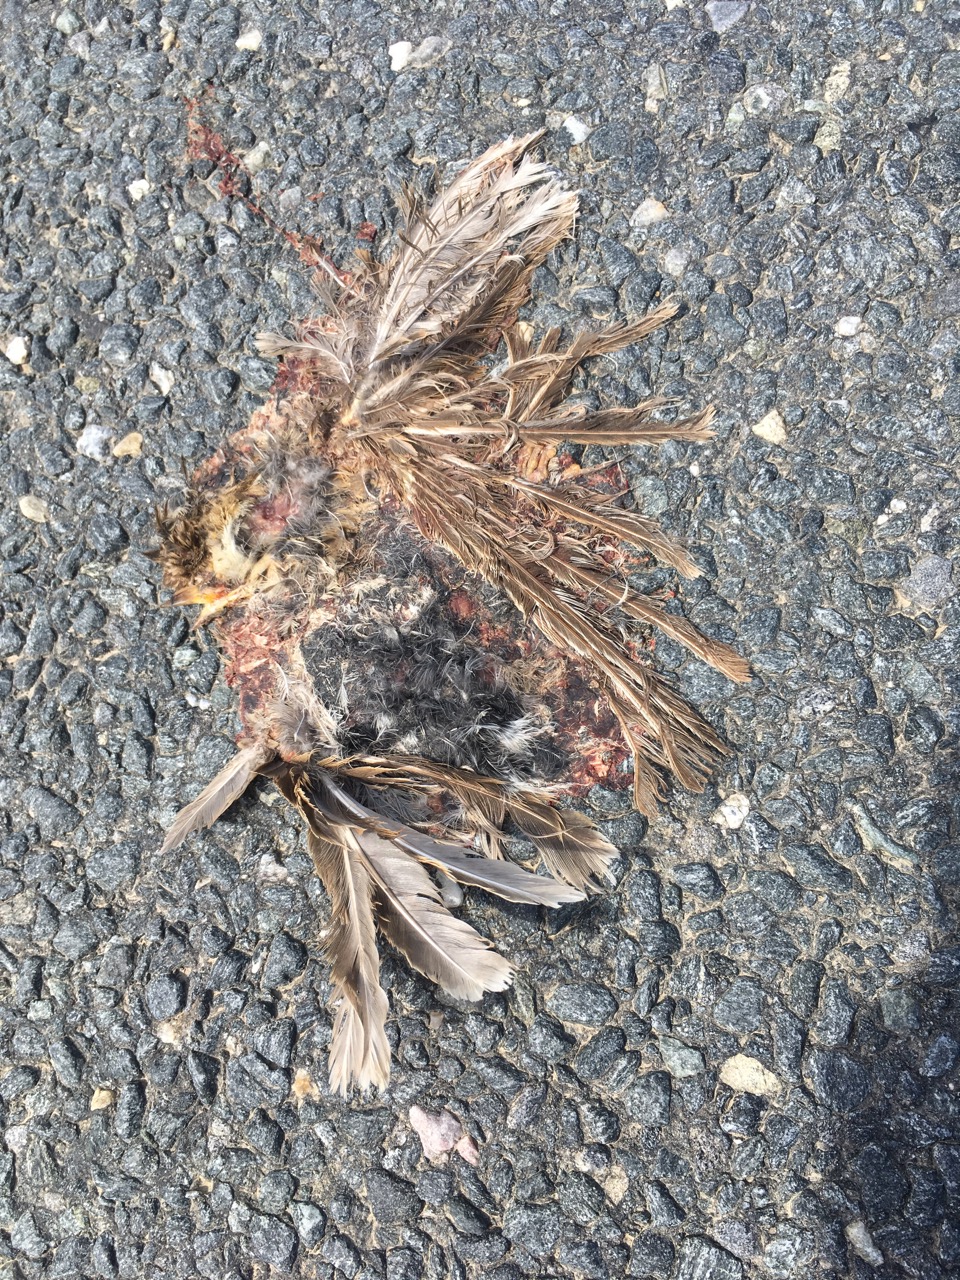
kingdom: Animalia
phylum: Chordata
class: Aves
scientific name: Aves
